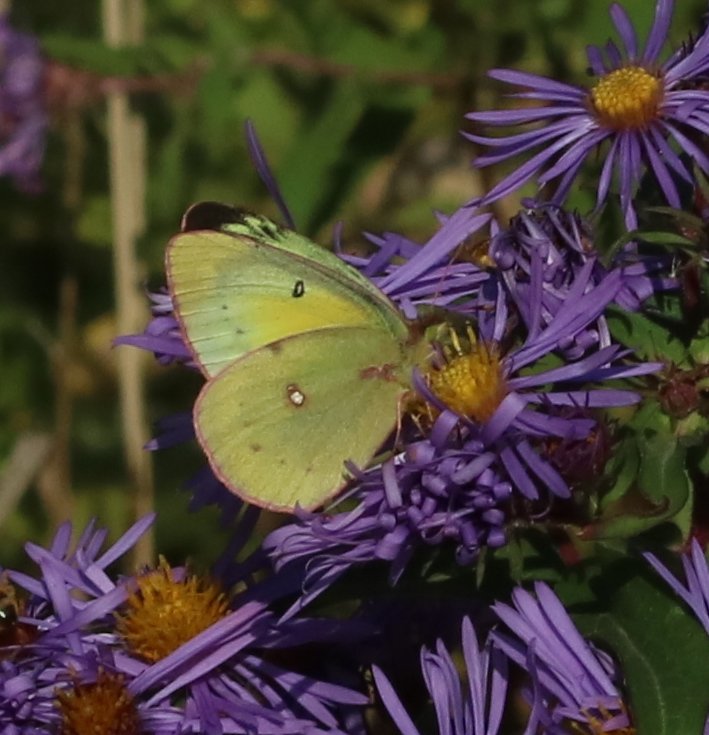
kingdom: Animalia
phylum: Arthropoda
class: Insecta
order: Lepidoptera
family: Pieridae
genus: Colias
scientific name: Colias philodice
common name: Clouded Sulphur
